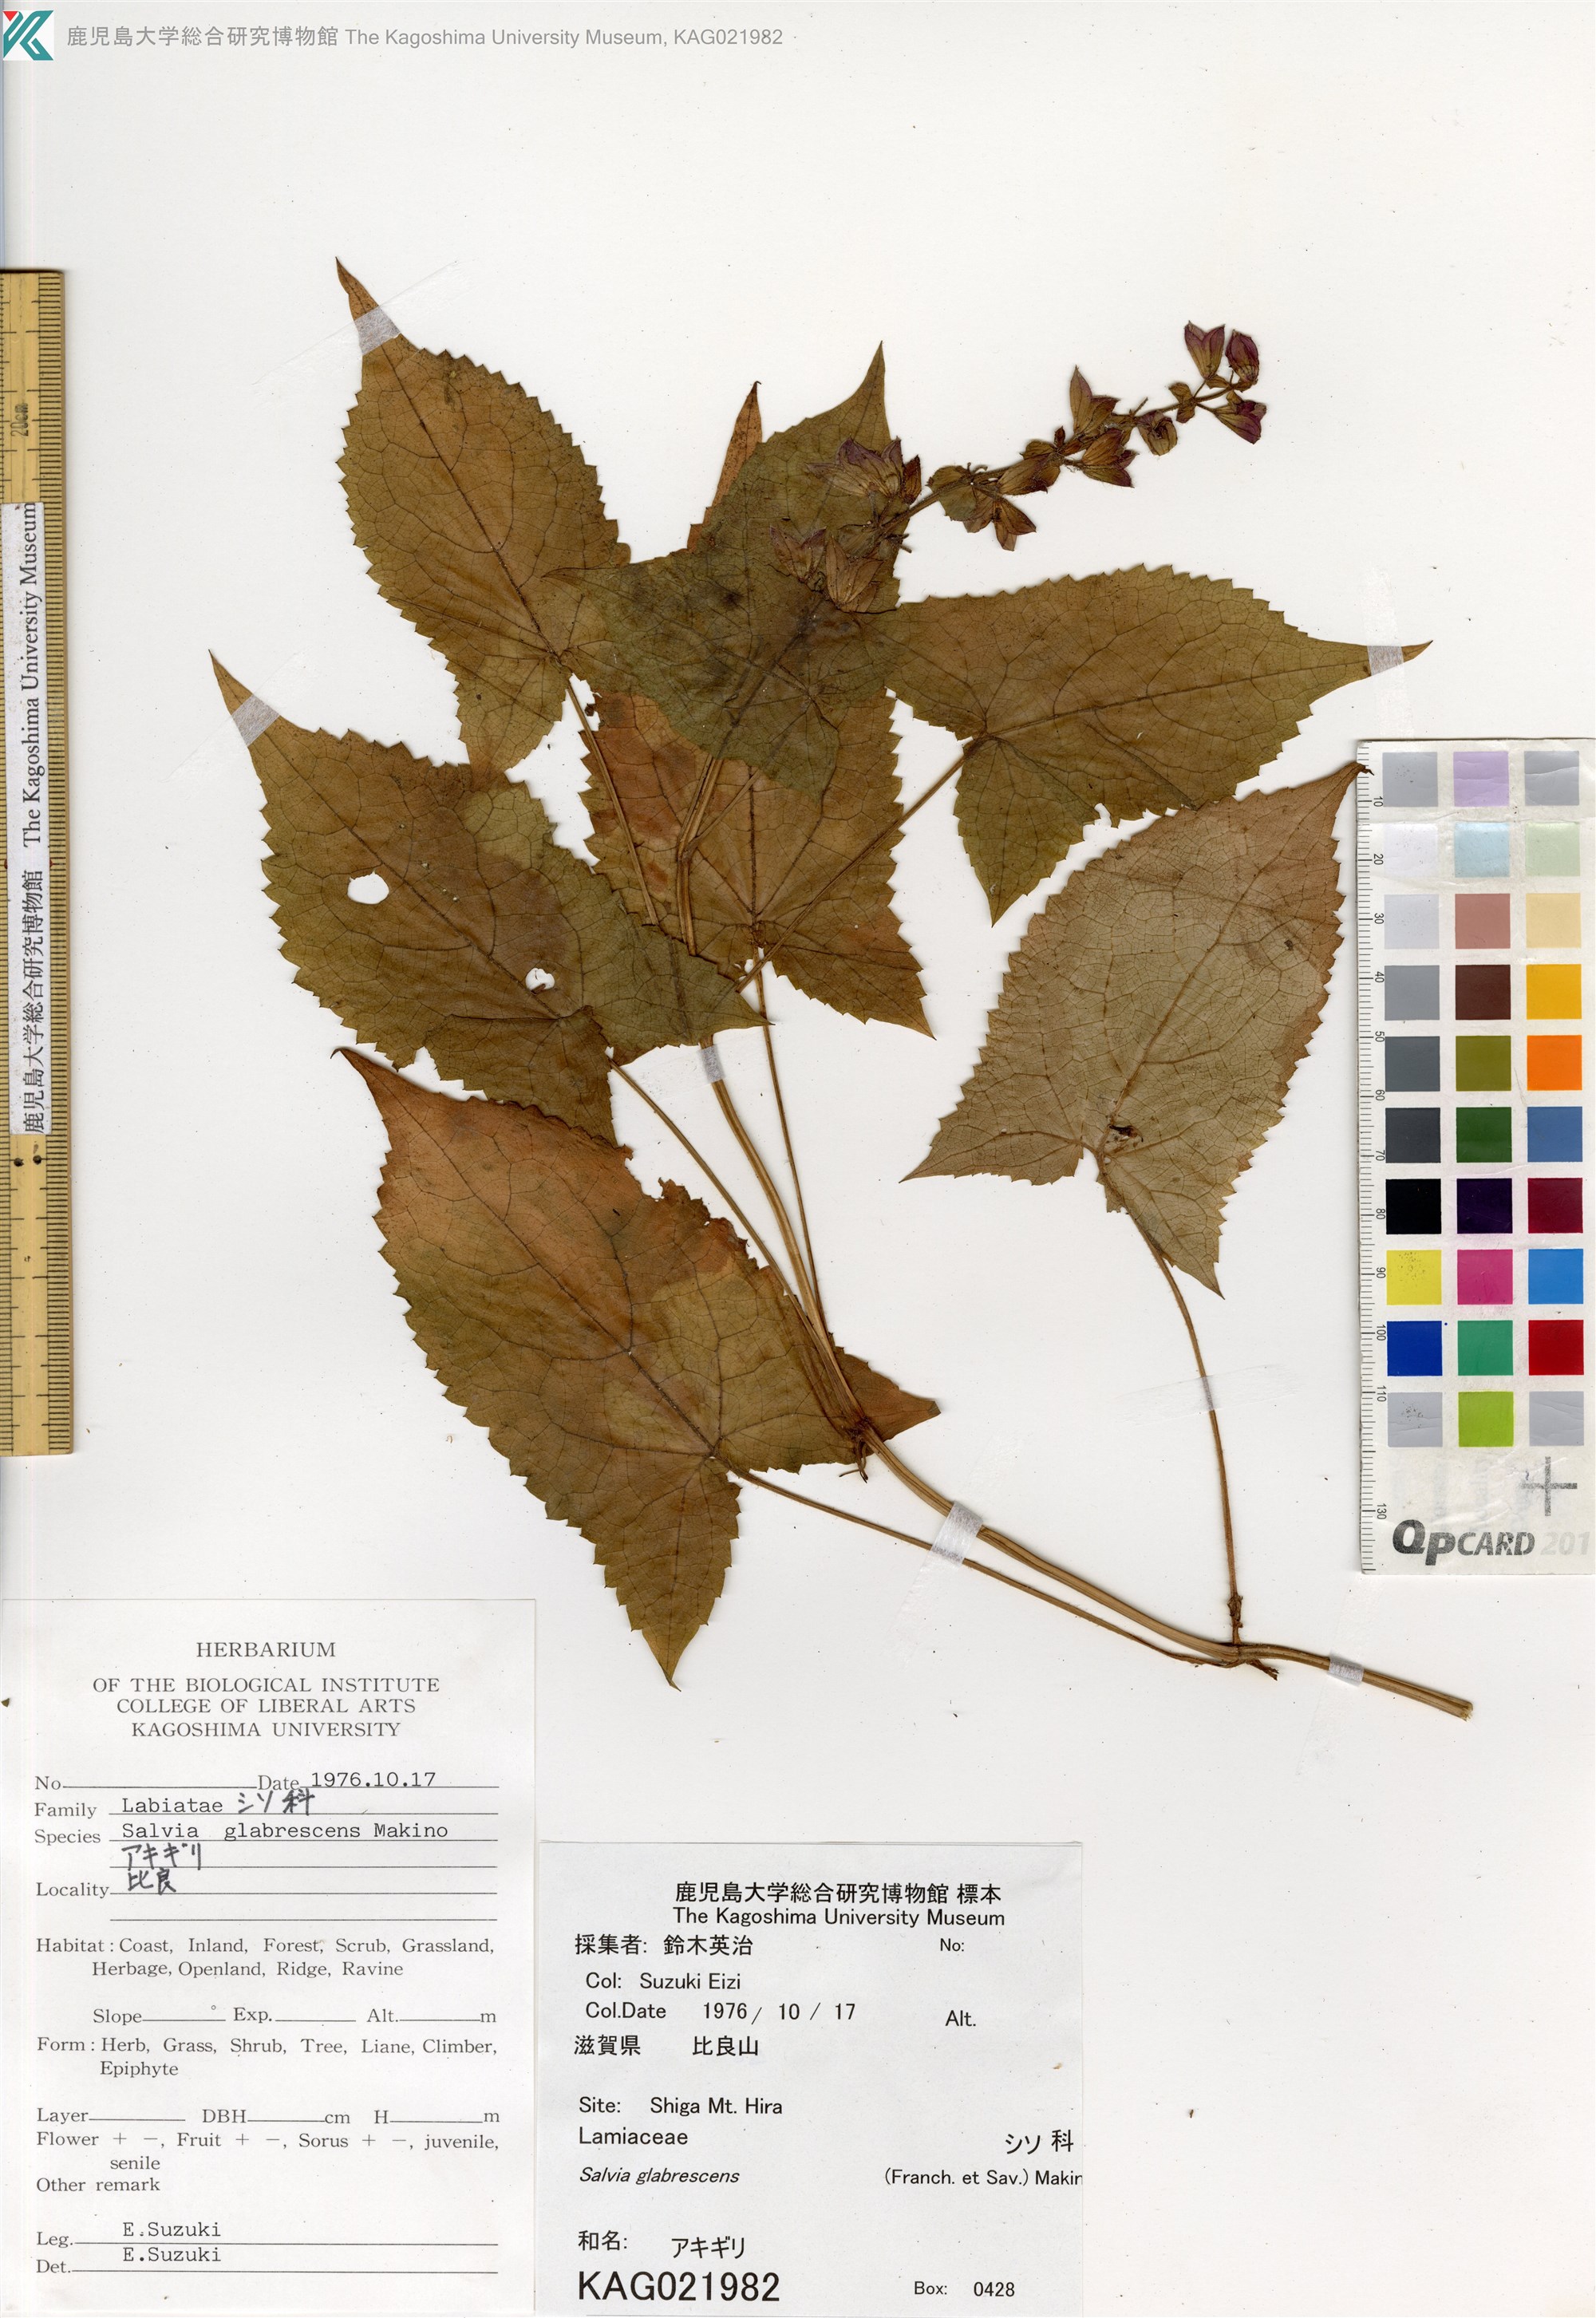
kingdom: Plantae
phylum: Tracheophyta
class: Magnoliopsida
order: Lamiales
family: Lamiaceae
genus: Salvia
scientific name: Salvia glabrescens
